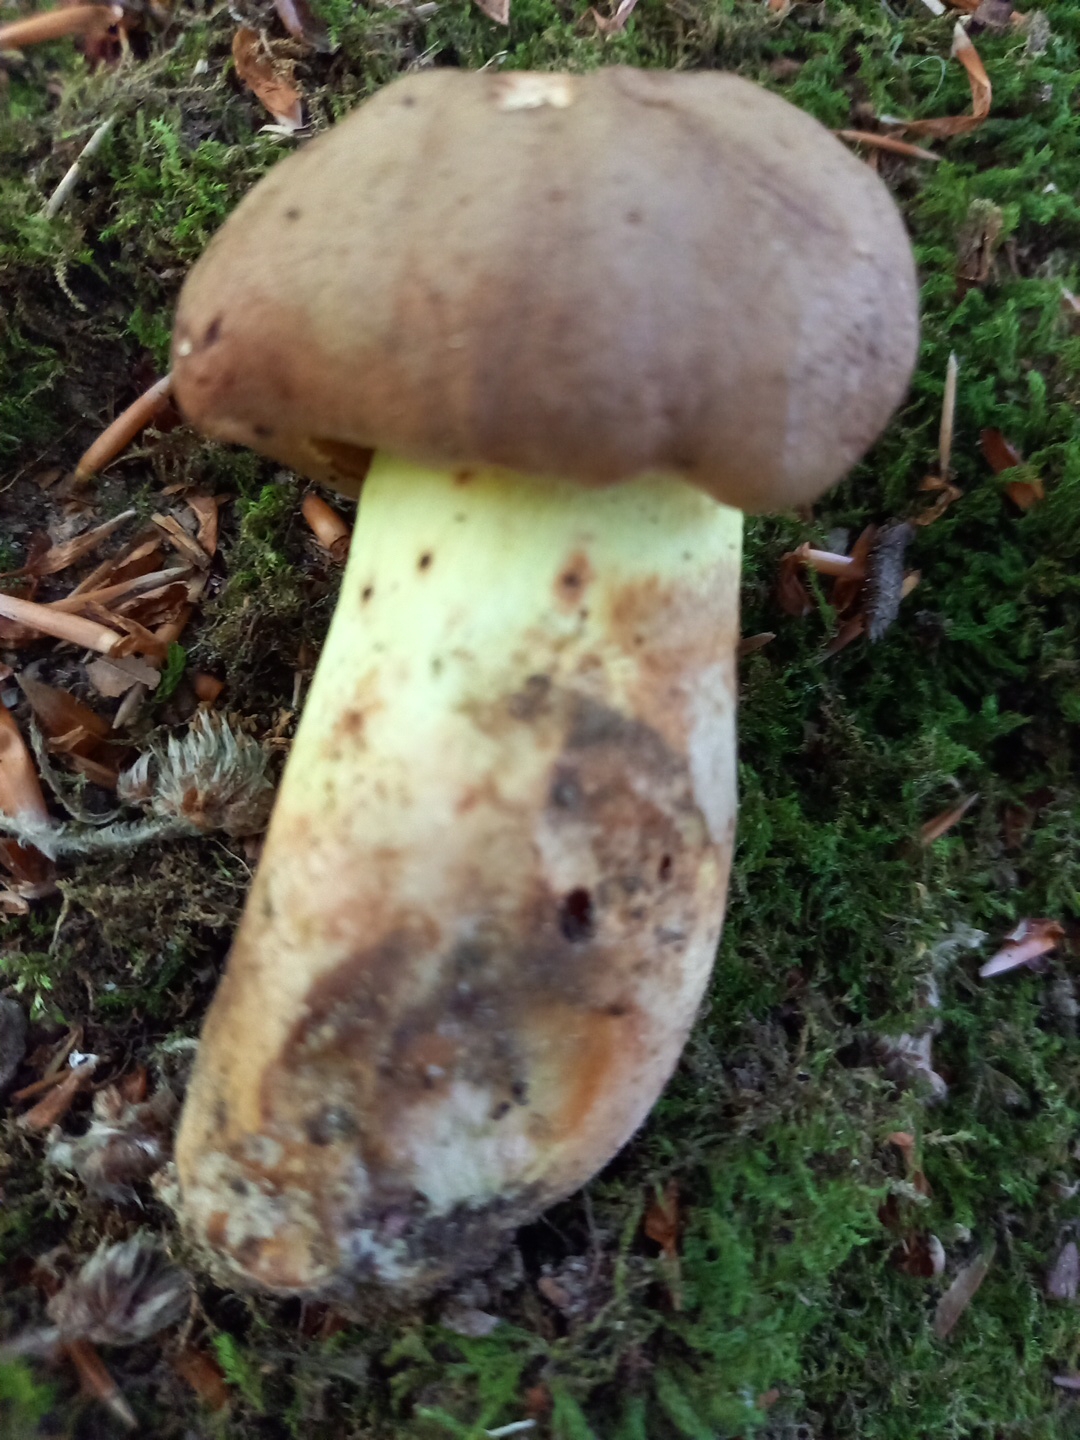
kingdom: Fungi
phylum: Basidiomycota
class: Agaricomycetes
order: Boletales
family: Boletaceae
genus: Butyriboletus
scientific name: Butyriboletus appendiculatus
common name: tenstokket rørhat
